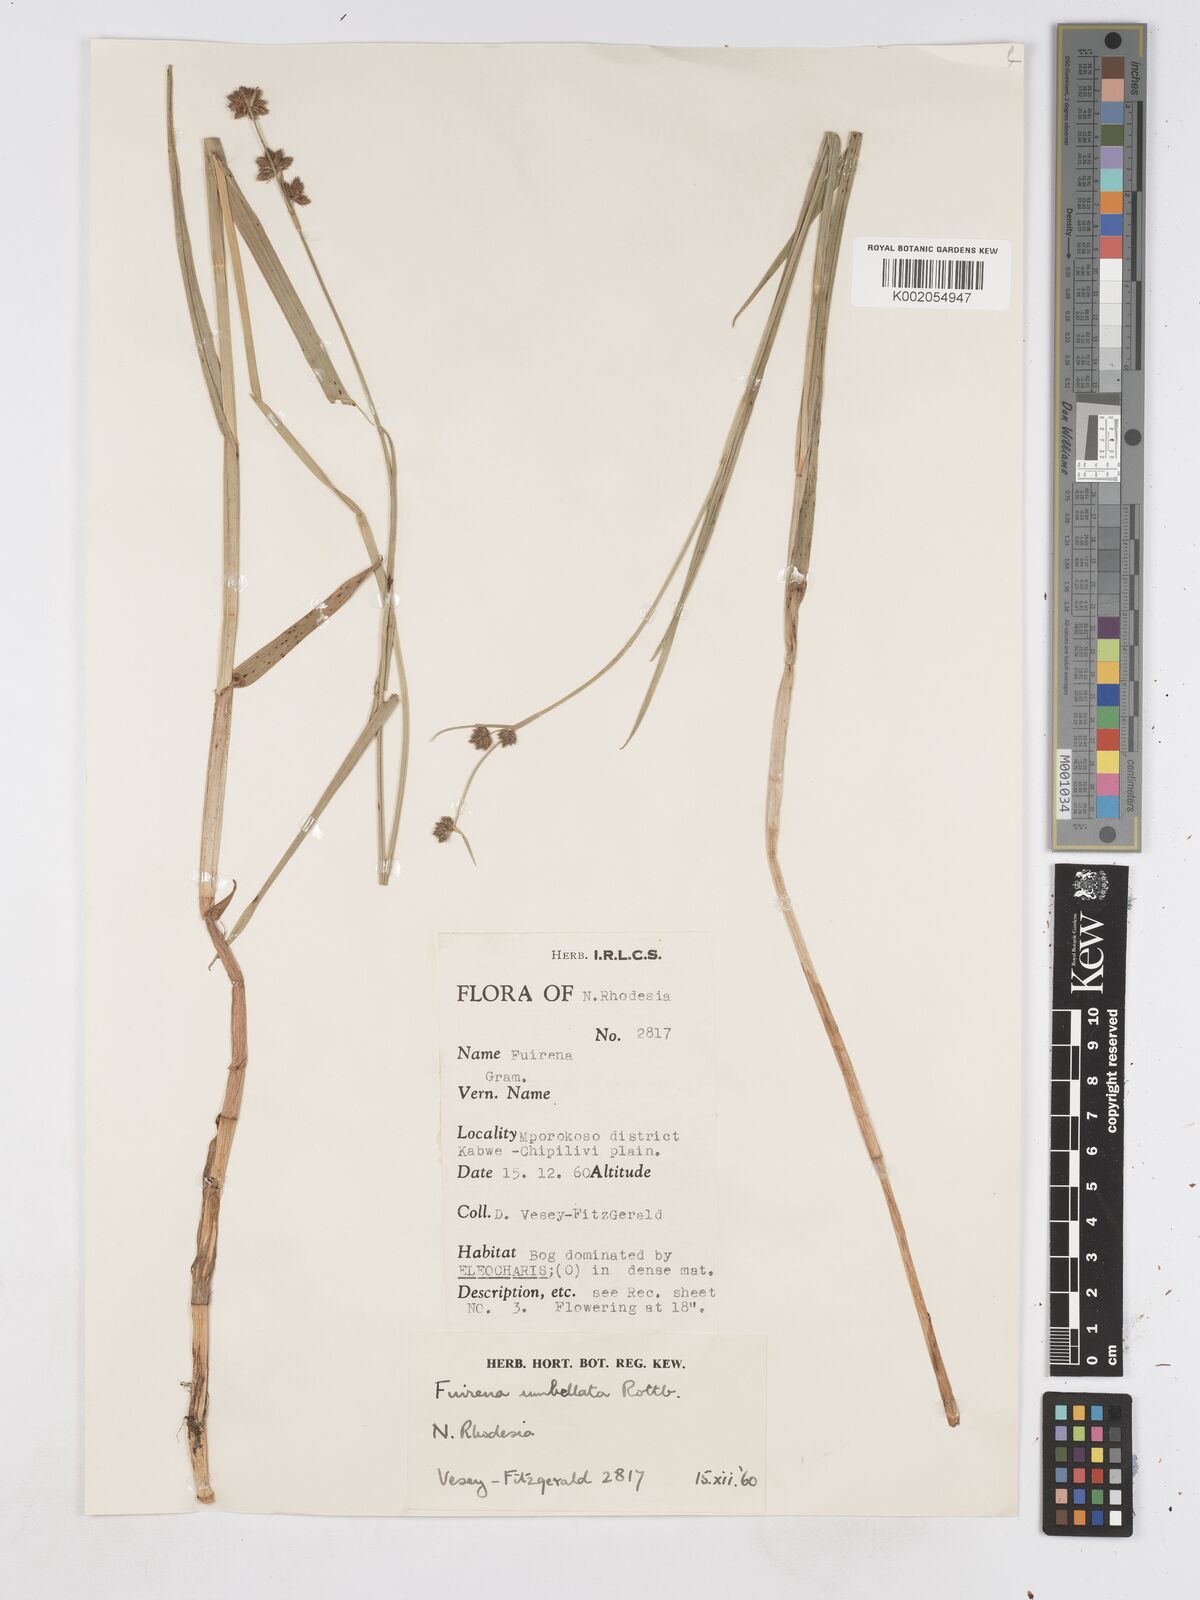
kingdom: Plantae
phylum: Tracheophyta
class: Liliopsida
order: Poales
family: Cyperaceae
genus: Fuirena
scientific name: Fuirena umbellata
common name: Yefen
